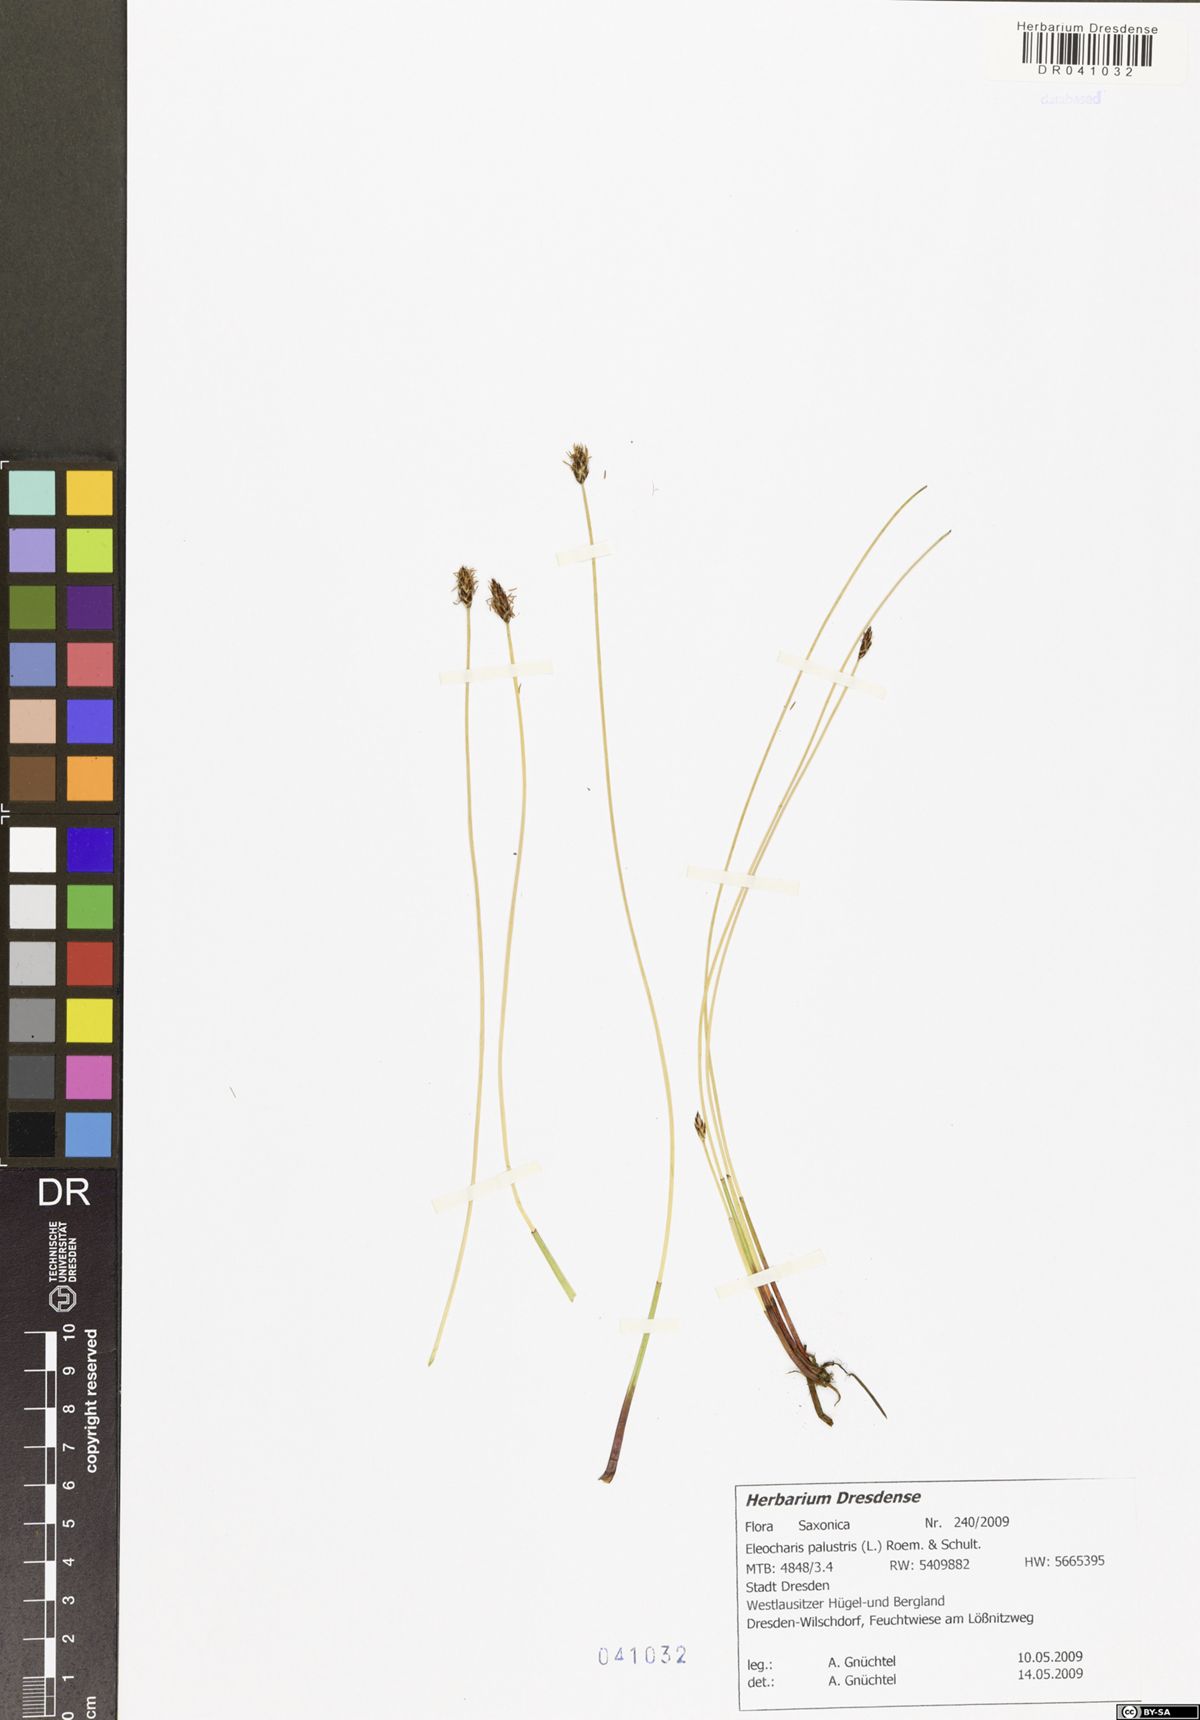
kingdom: Plantae
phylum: Tracheophyta
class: Liliopsida
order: Poales
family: Cyperaceae
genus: Eleocharis
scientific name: Eleocharis palustris
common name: Common spike-rush
